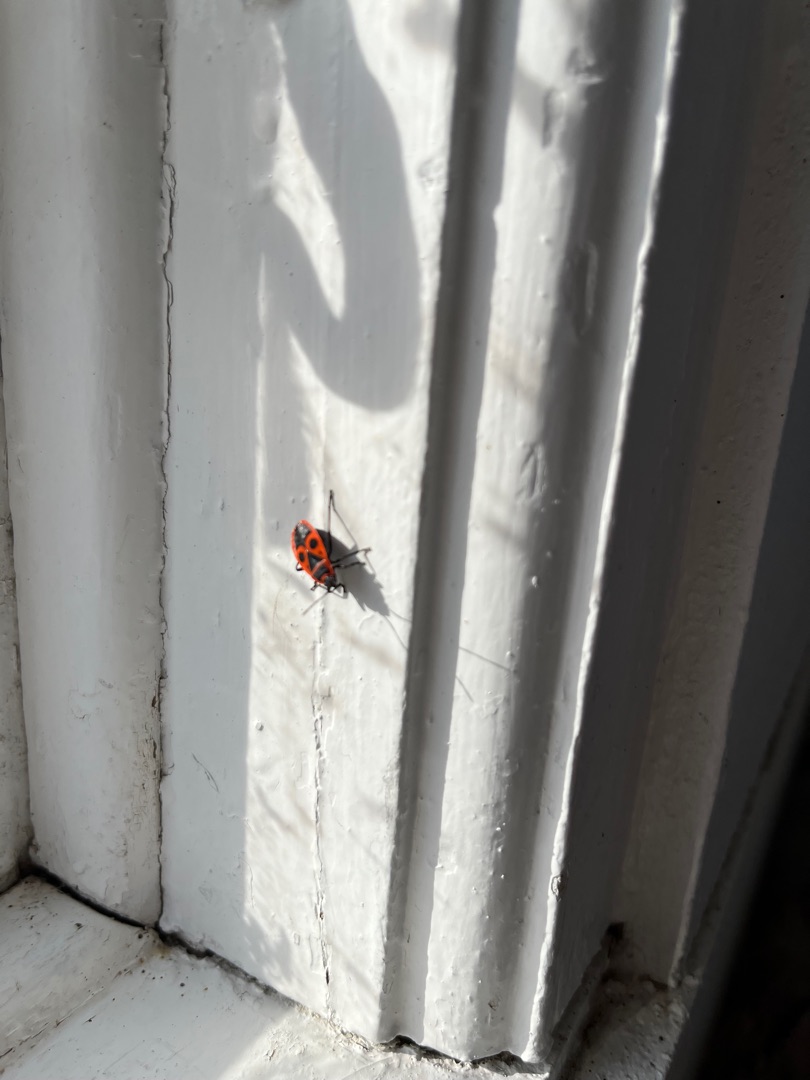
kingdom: Animalia
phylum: Arthropoda
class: Insecta
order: Hemiptera
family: Pyrrhocoridae
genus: Pyrrhocoris
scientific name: Pyrrhocoris apterus
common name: Ildtæge
